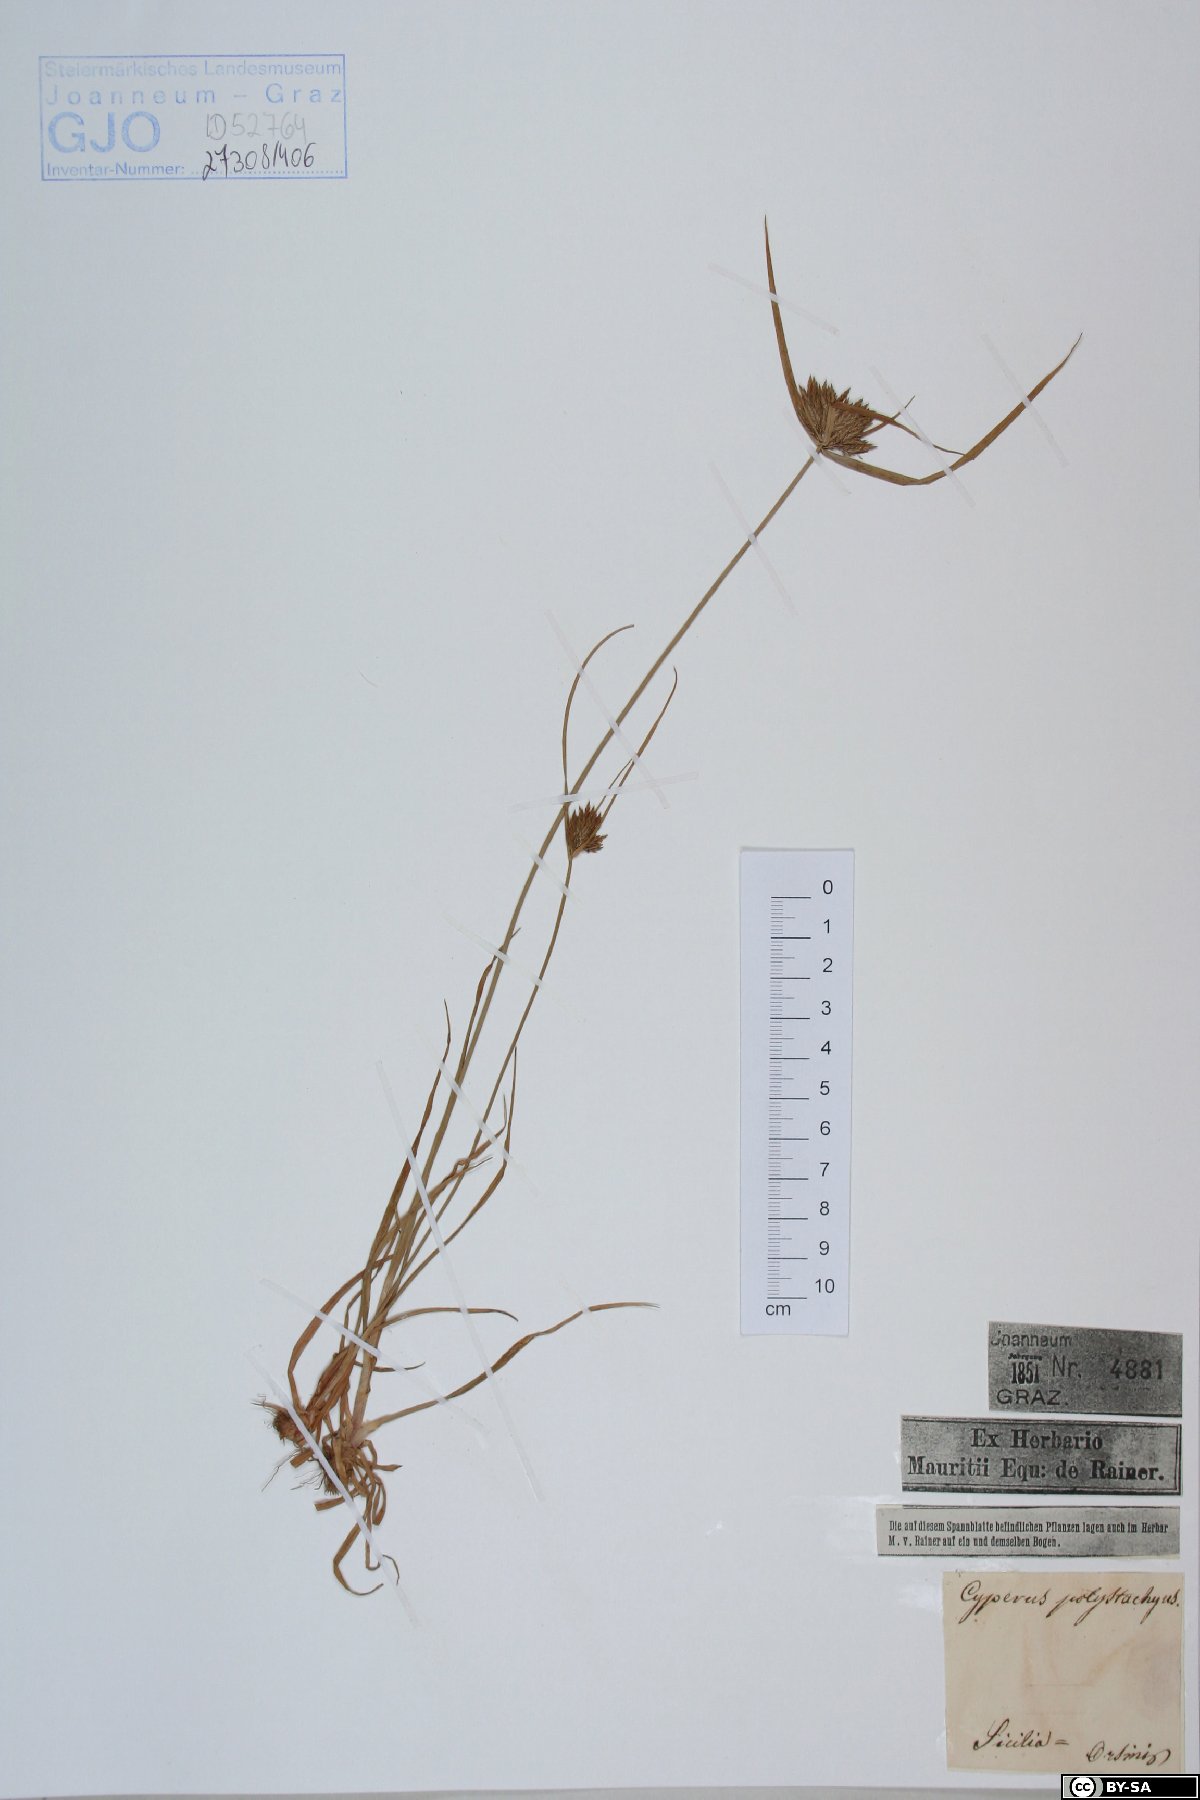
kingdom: Plantae
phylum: Tracheophyta
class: Liliopsida
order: Poales
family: Cyperaceae
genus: Cyperus
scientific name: Cyperus polystachyos
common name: Bunchy flat sedge
